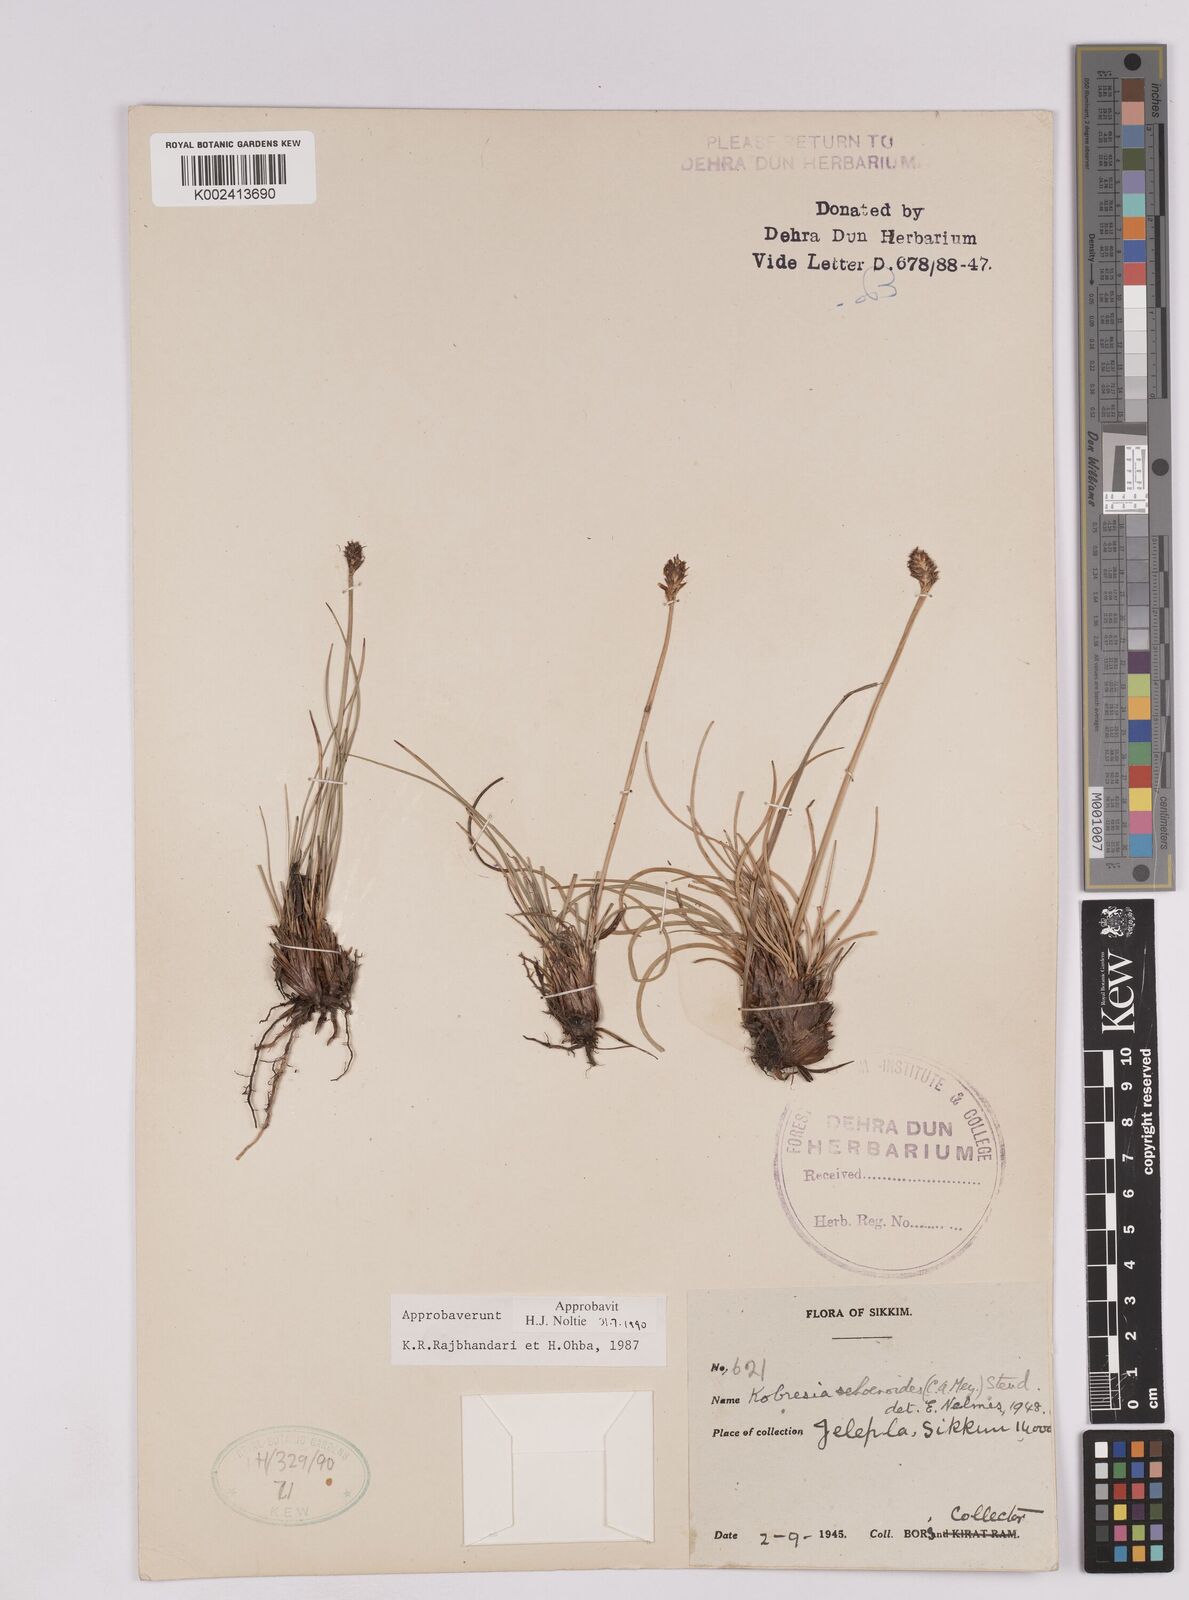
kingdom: Plantae
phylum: Tracheophyta
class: Liliopsida
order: Poales
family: Cyperaceae
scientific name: Cyperaceae
